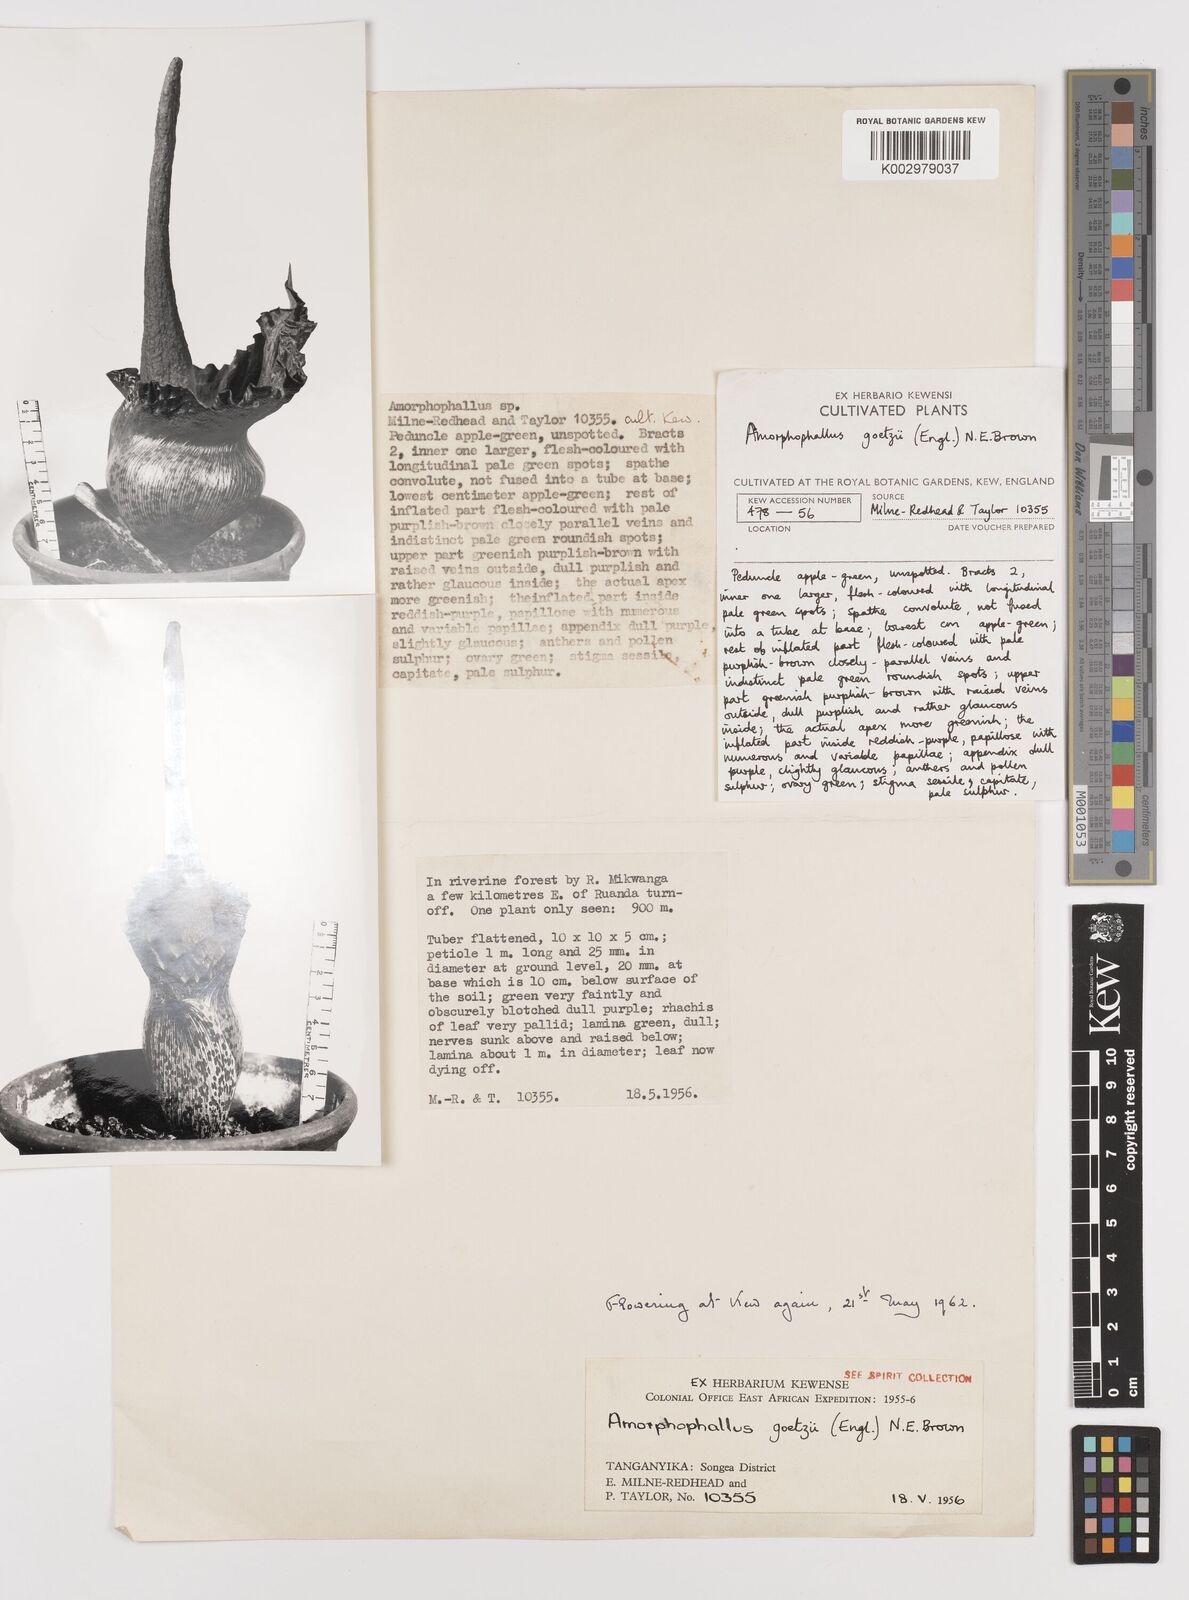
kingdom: Plantae
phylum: Tracheophyta
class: Liliopsida
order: Alismatales
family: Araceae
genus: Amorphophallus
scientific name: Amorphophallus goetzei
